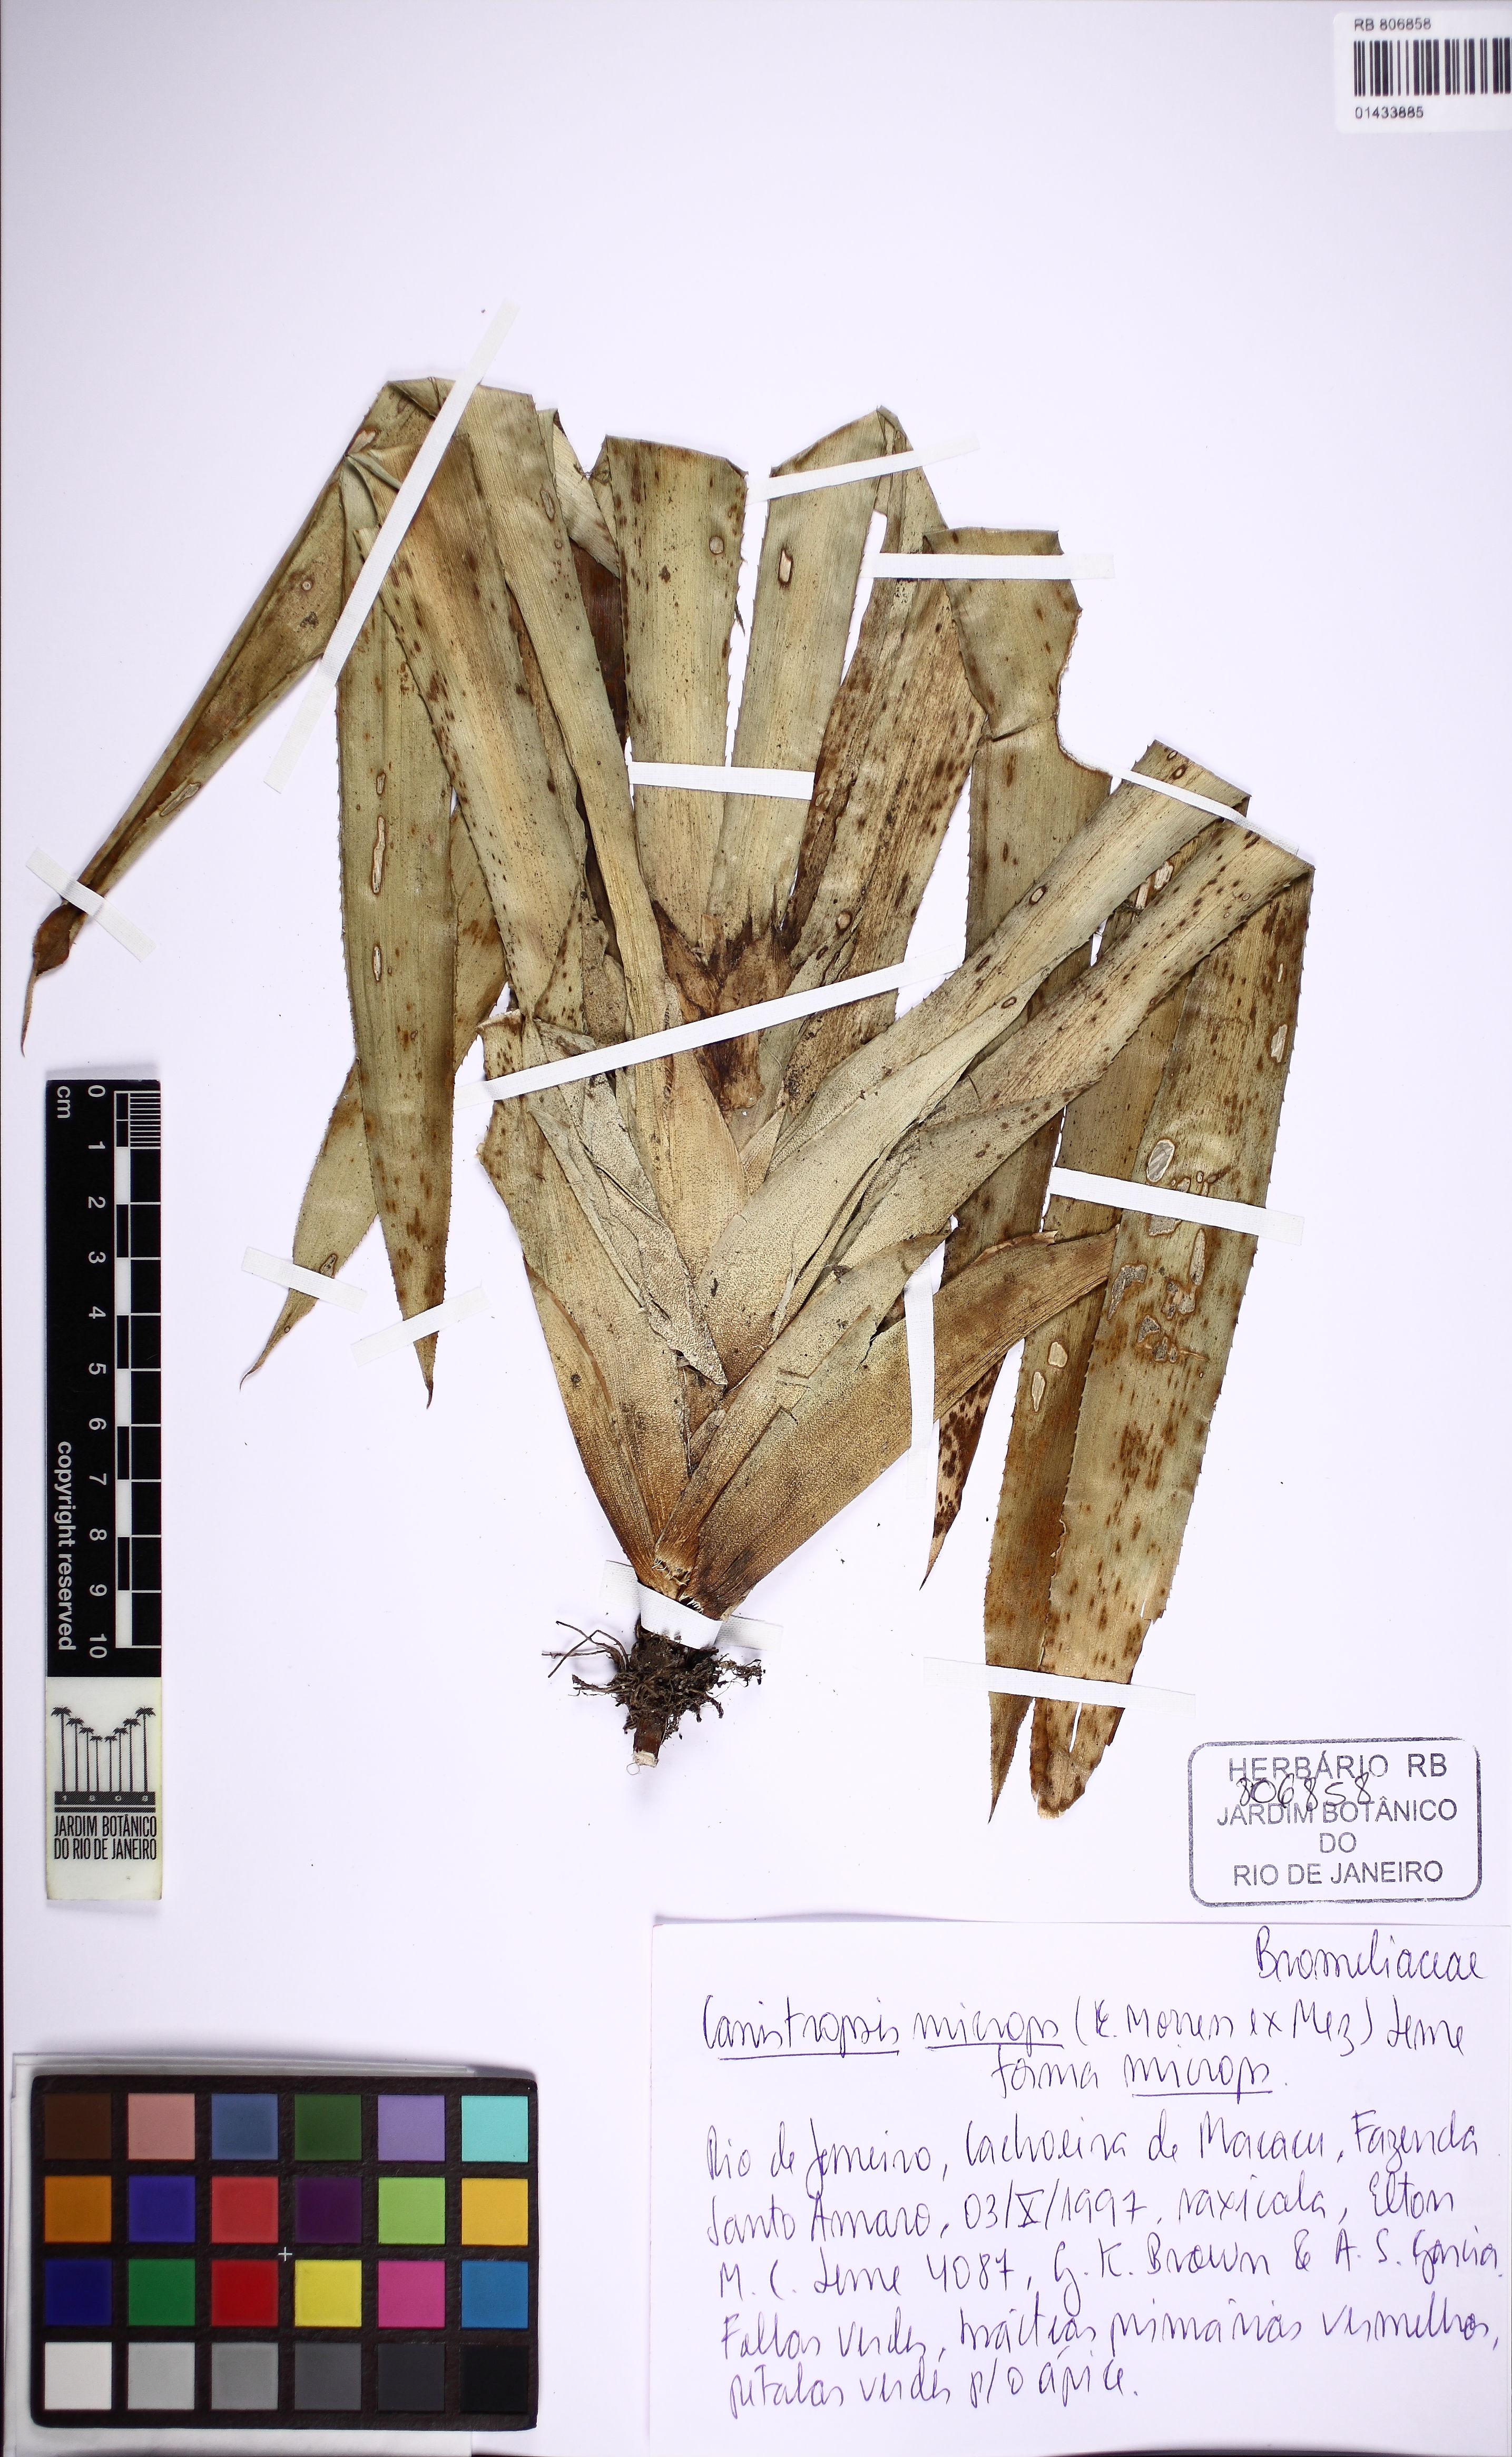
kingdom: Plantae
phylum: Tracheophyta
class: Liliopsida
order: Poales
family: Bromeliaceae
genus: Canistropsis
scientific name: Canistropsis microps
